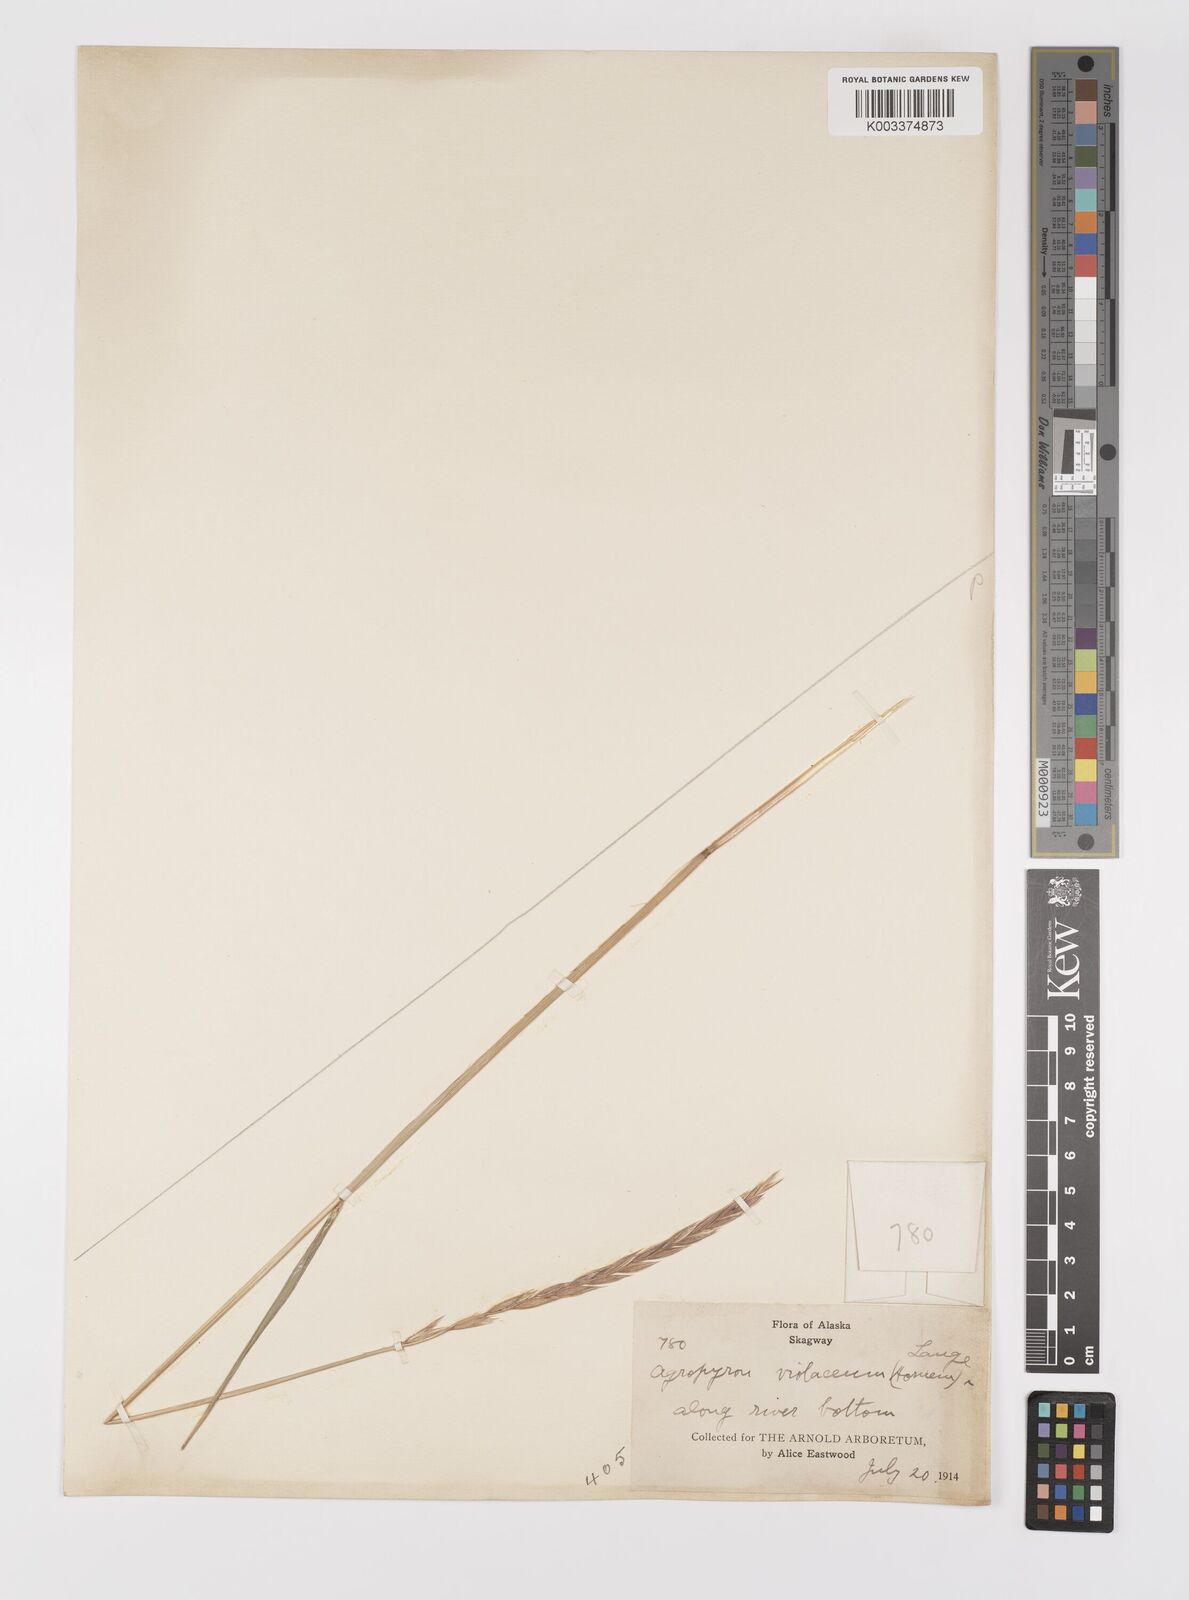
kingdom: Plantae
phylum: Tracheophyta
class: Liliopsida
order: Poales
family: Poaceae
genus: Elymus
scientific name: Elymus violaceus
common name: Arctic wheatgrass
